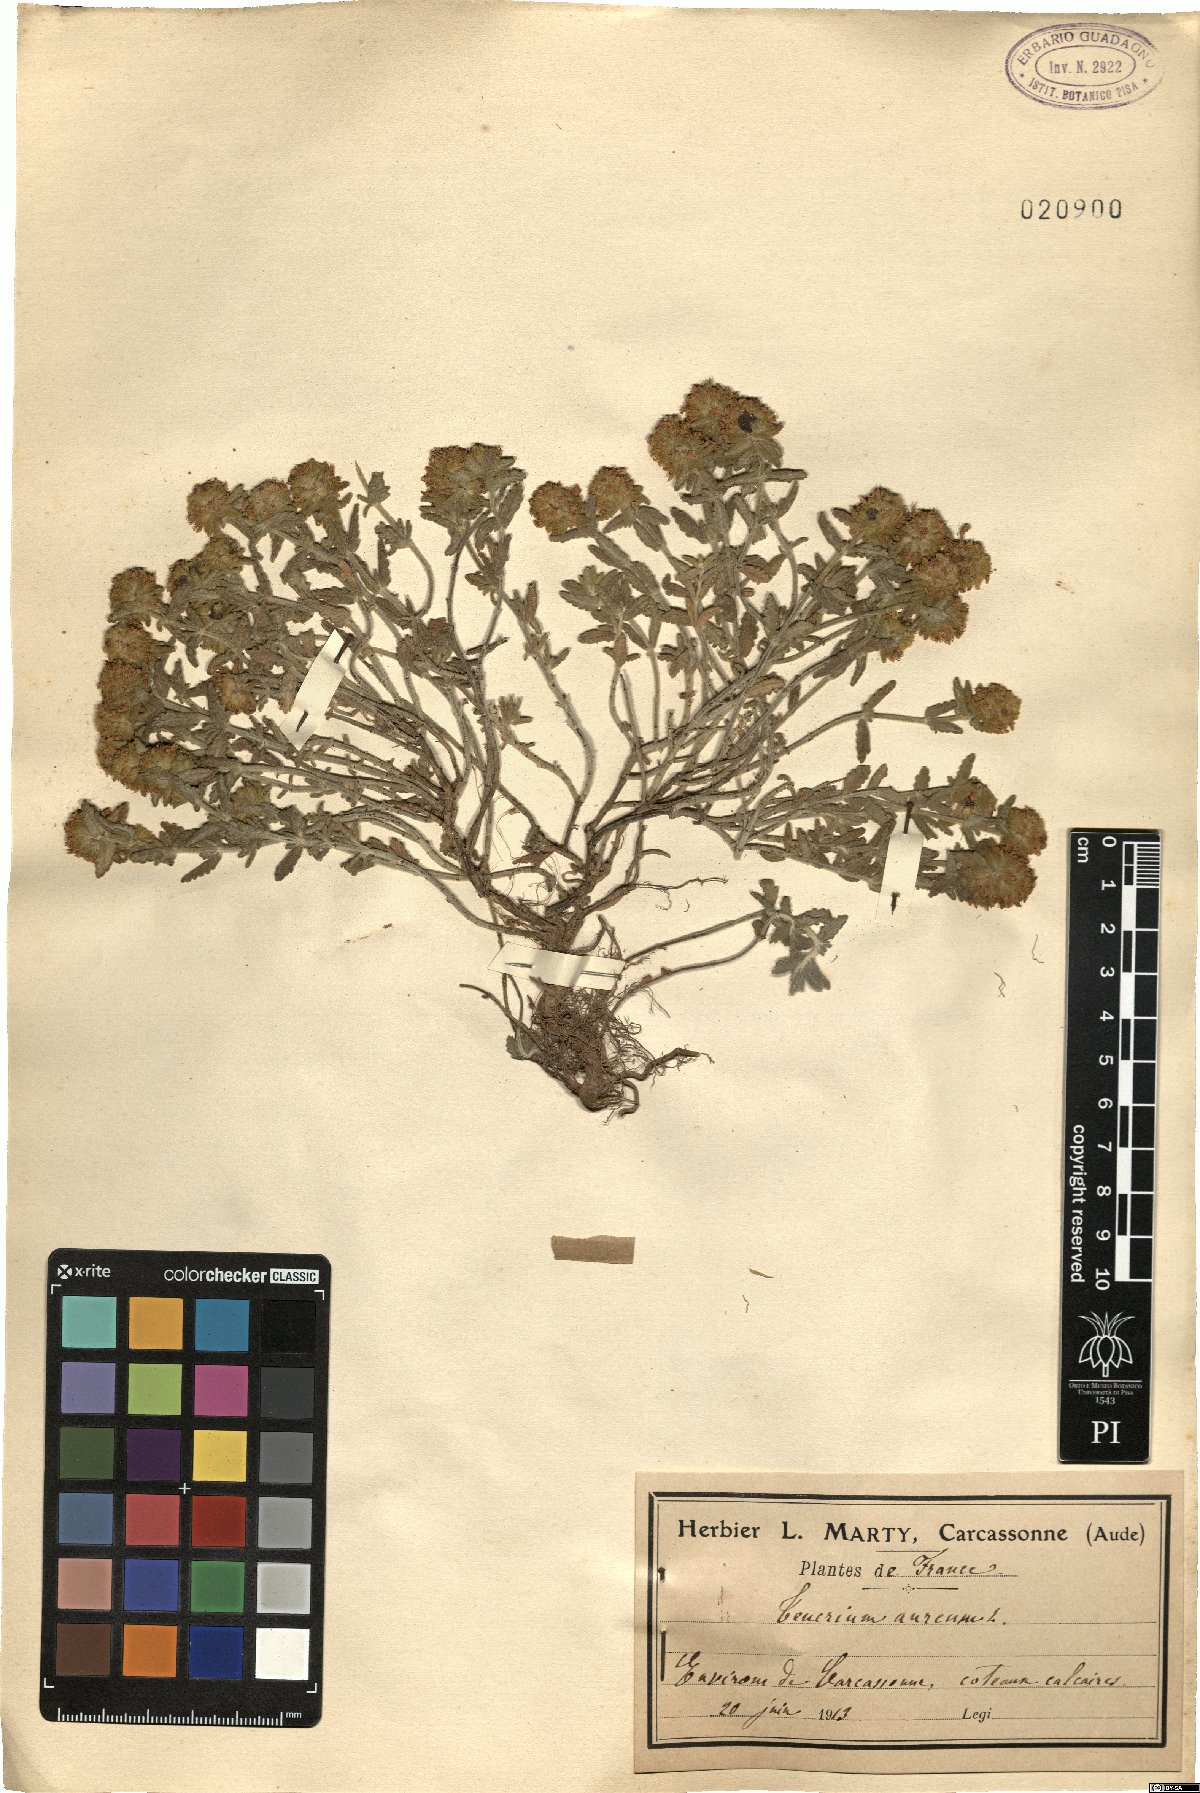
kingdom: Plantae
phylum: Tracheophyta
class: Magnoliopsida
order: Lamiales
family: Lamiaceae
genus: Teucrium
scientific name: Teucrium aureum
